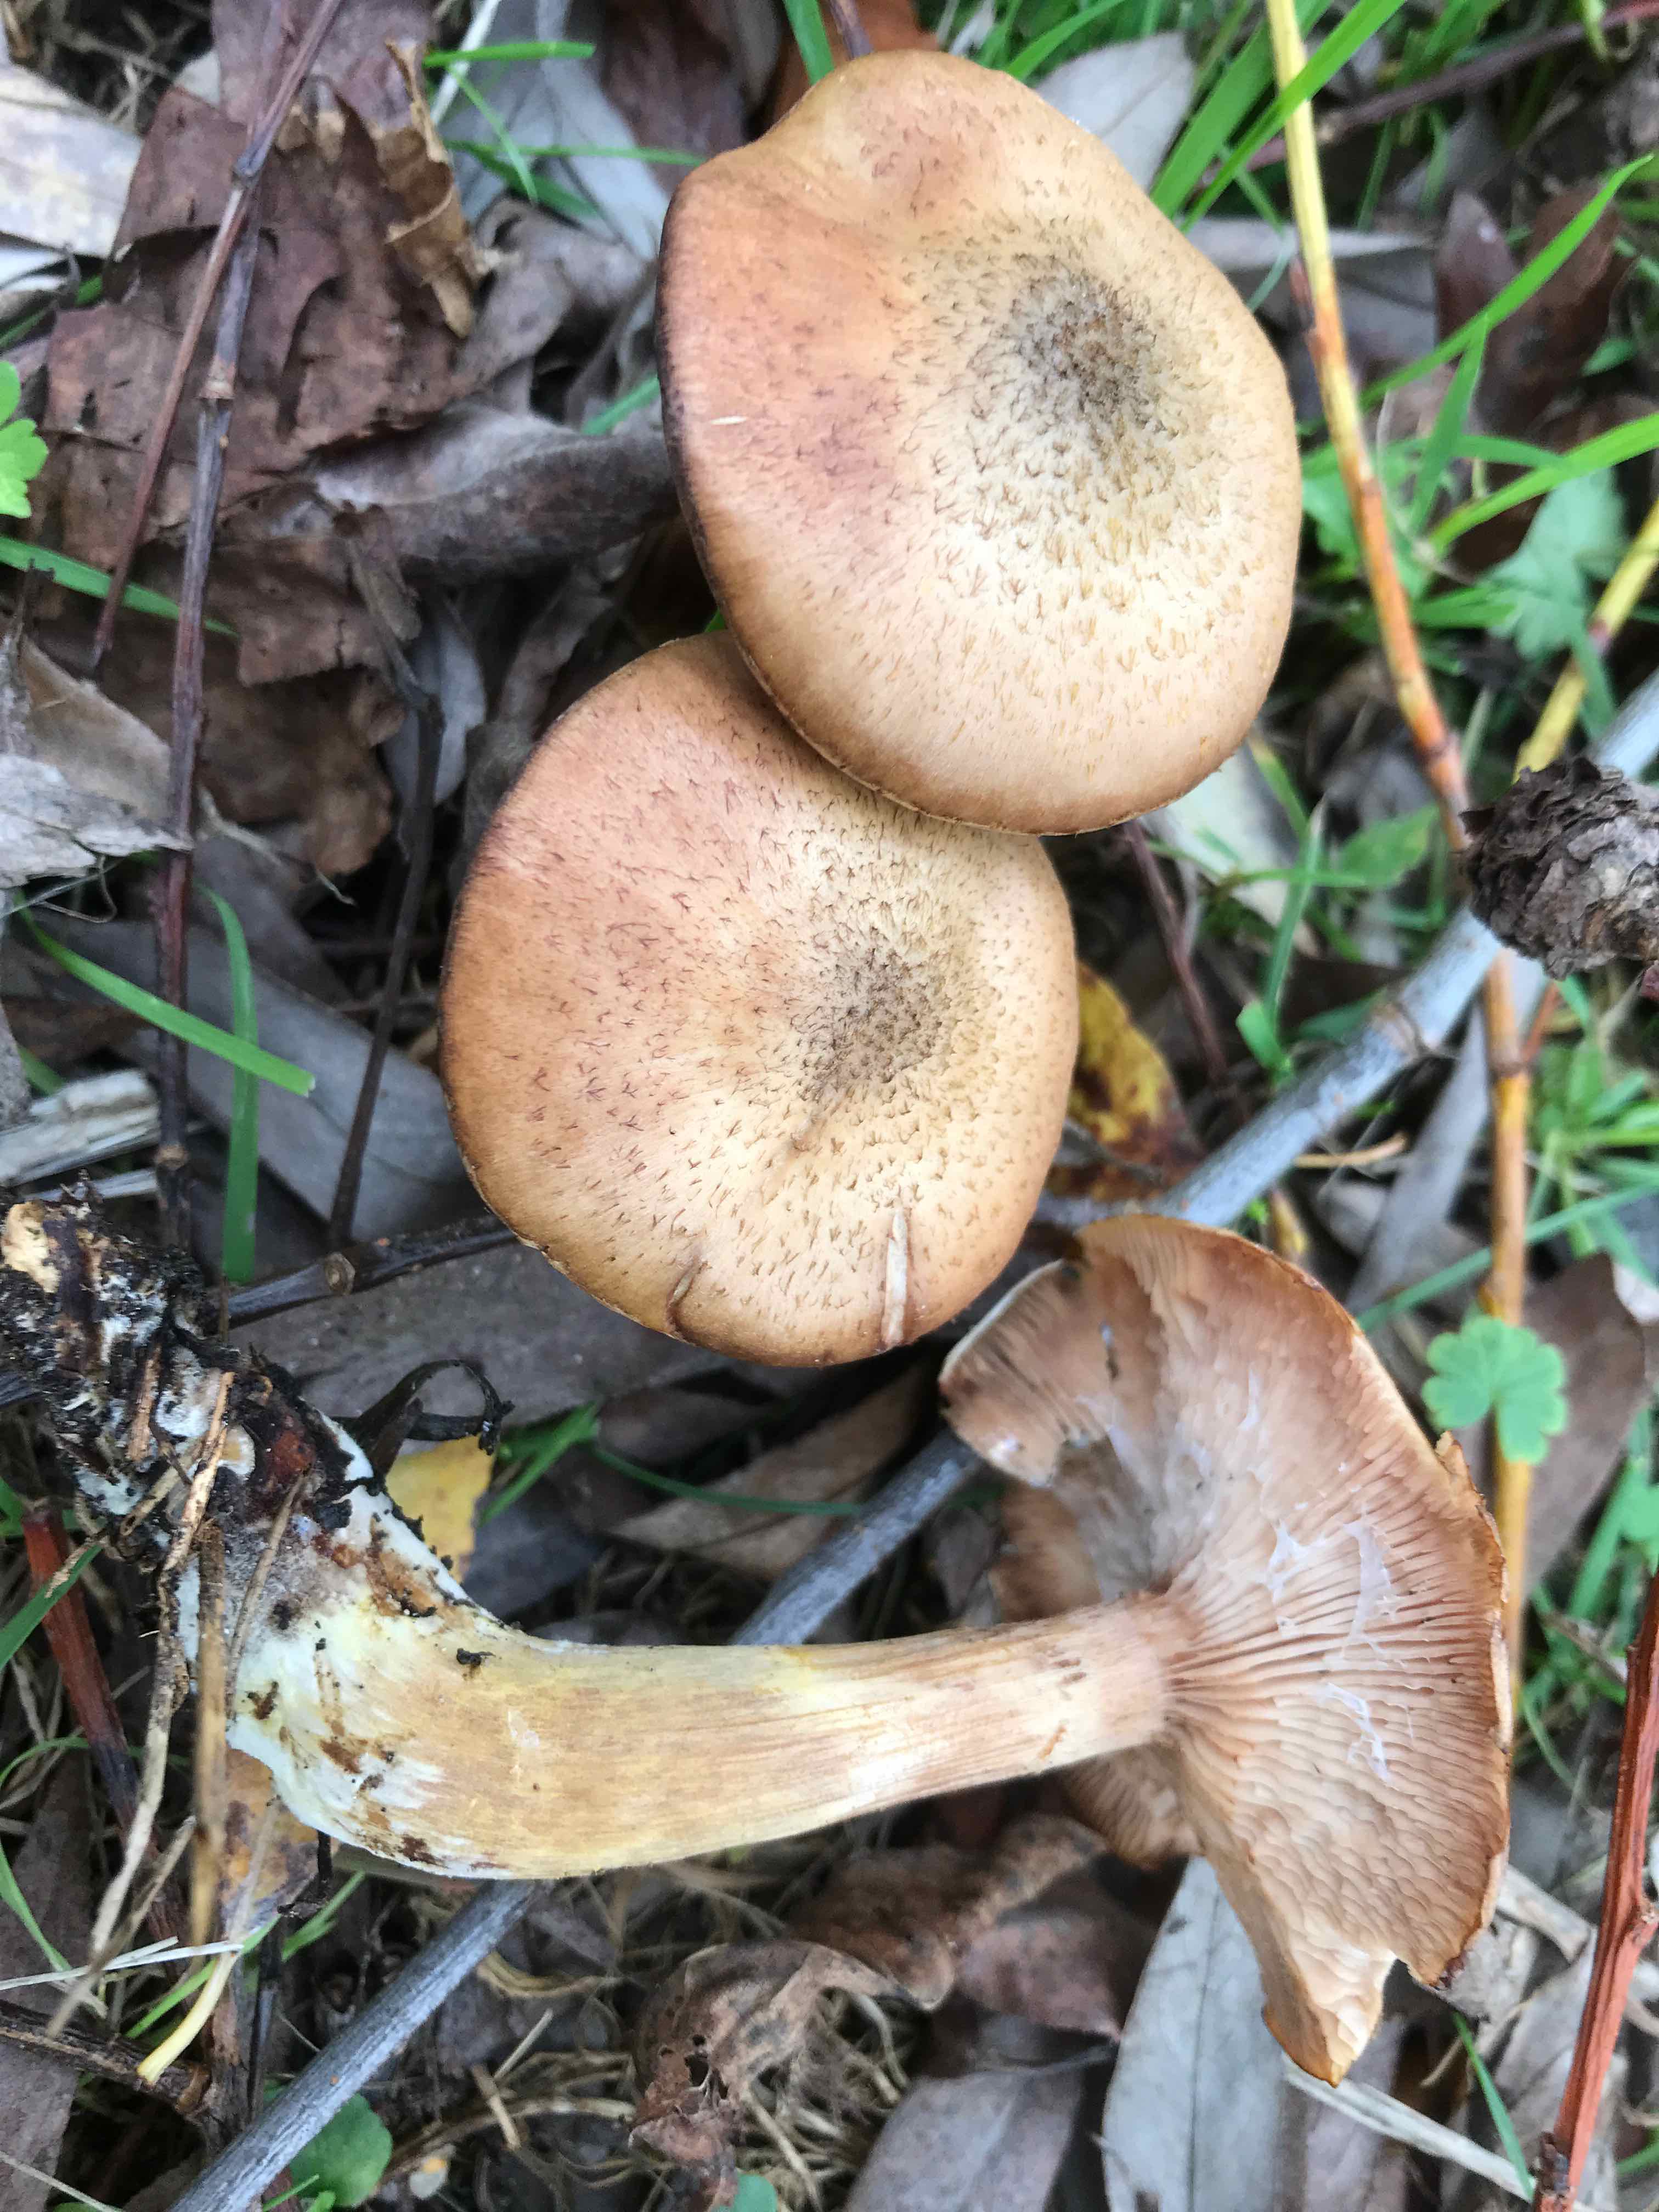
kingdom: Fungi
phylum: Basidiomycota
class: Agaricomycetes
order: Agaricales
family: Physalacriaceae
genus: Armillaria
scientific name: Armillaria lutea
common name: køllestokket honningsvamp
